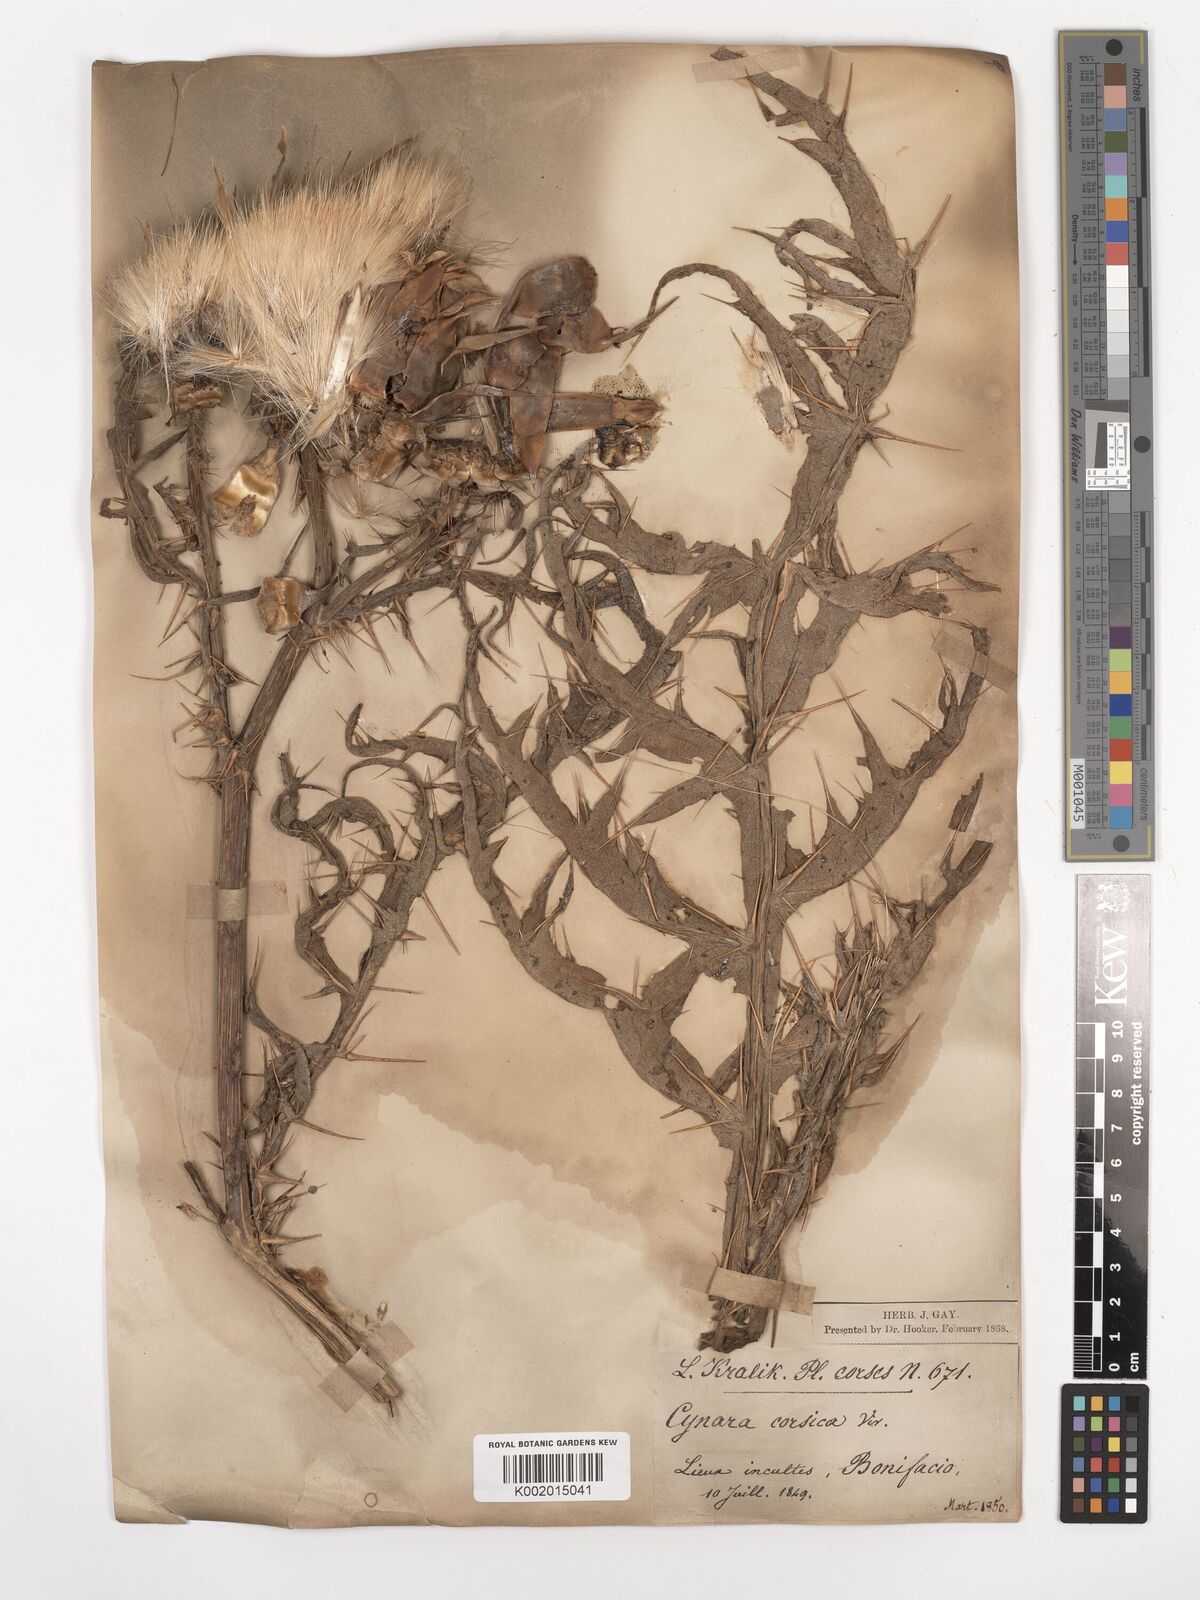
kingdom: Plantae
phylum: Tracheophyta
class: Magnoliopsida
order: Asterales
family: Asteraceae
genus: Cynara
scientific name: Cynara cardunculus
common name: Globe artichoke
